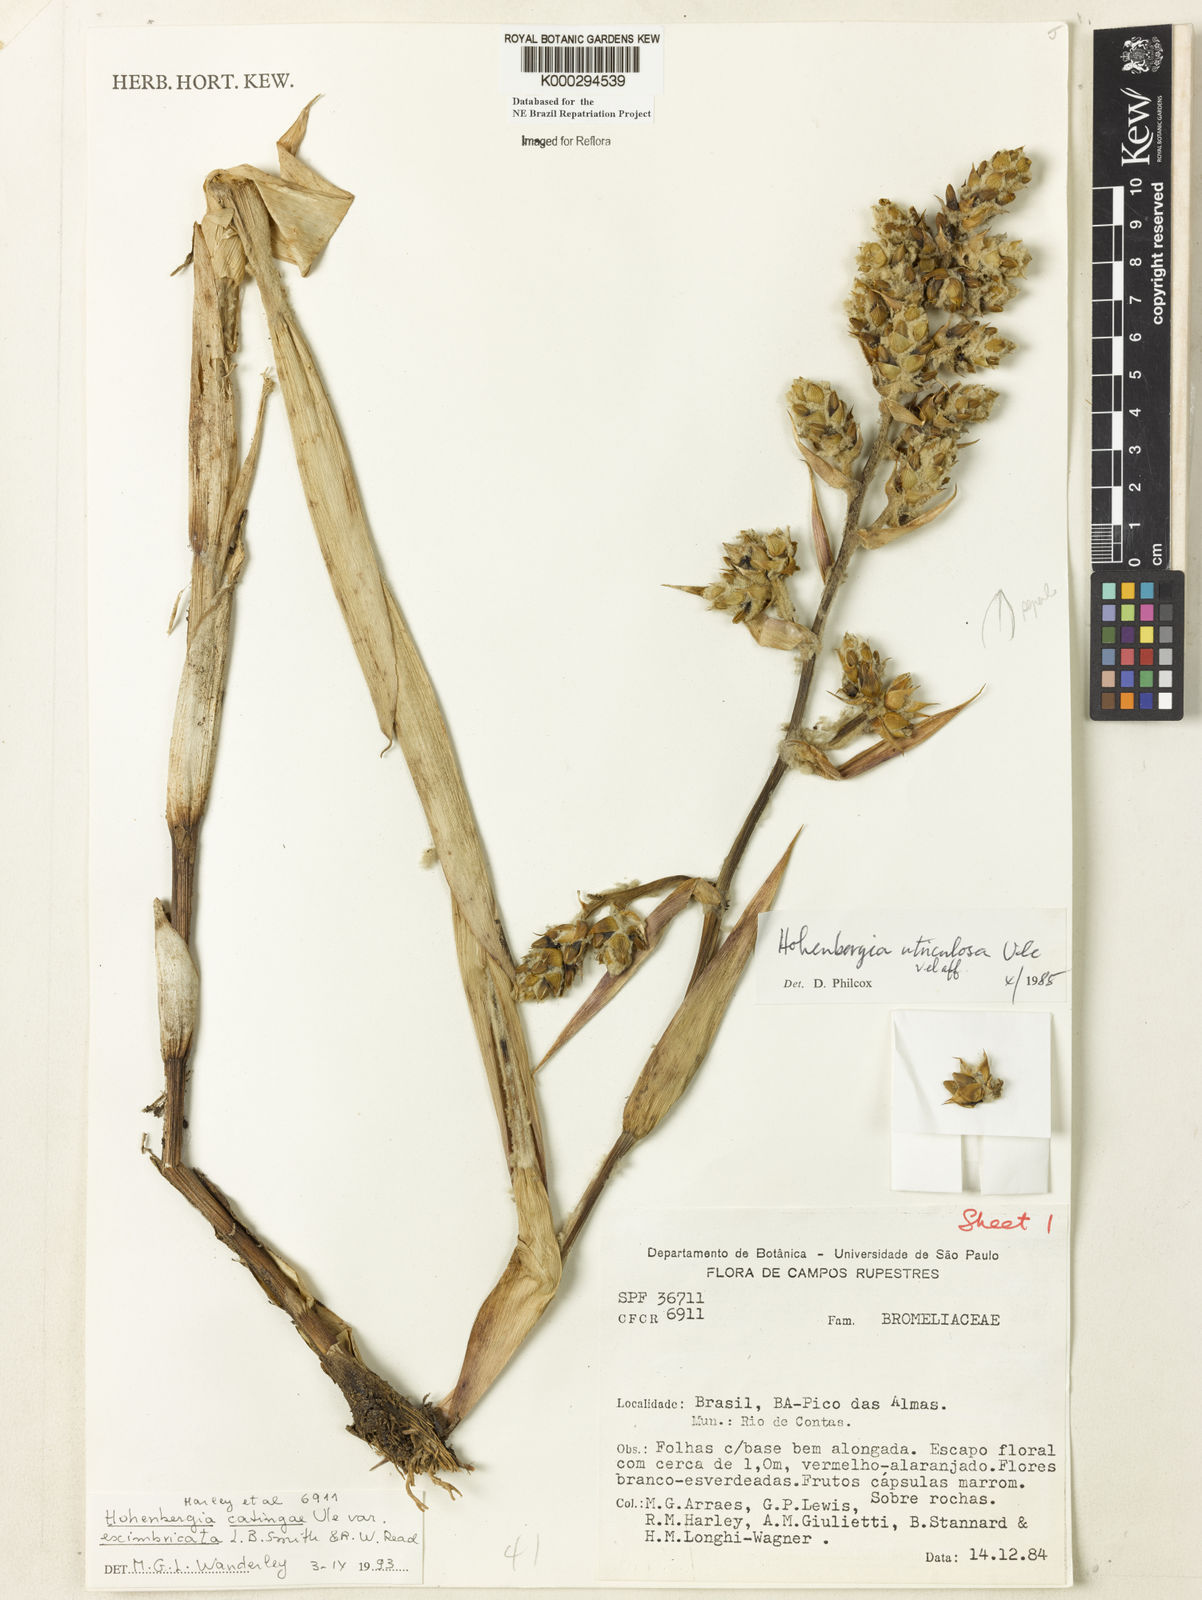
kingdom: Plantae
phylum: Tracheophyta
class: Liliopsida
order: Poales
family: Bromeliaceae
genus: Hohenbergia
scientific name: Hohenbergia catingae
